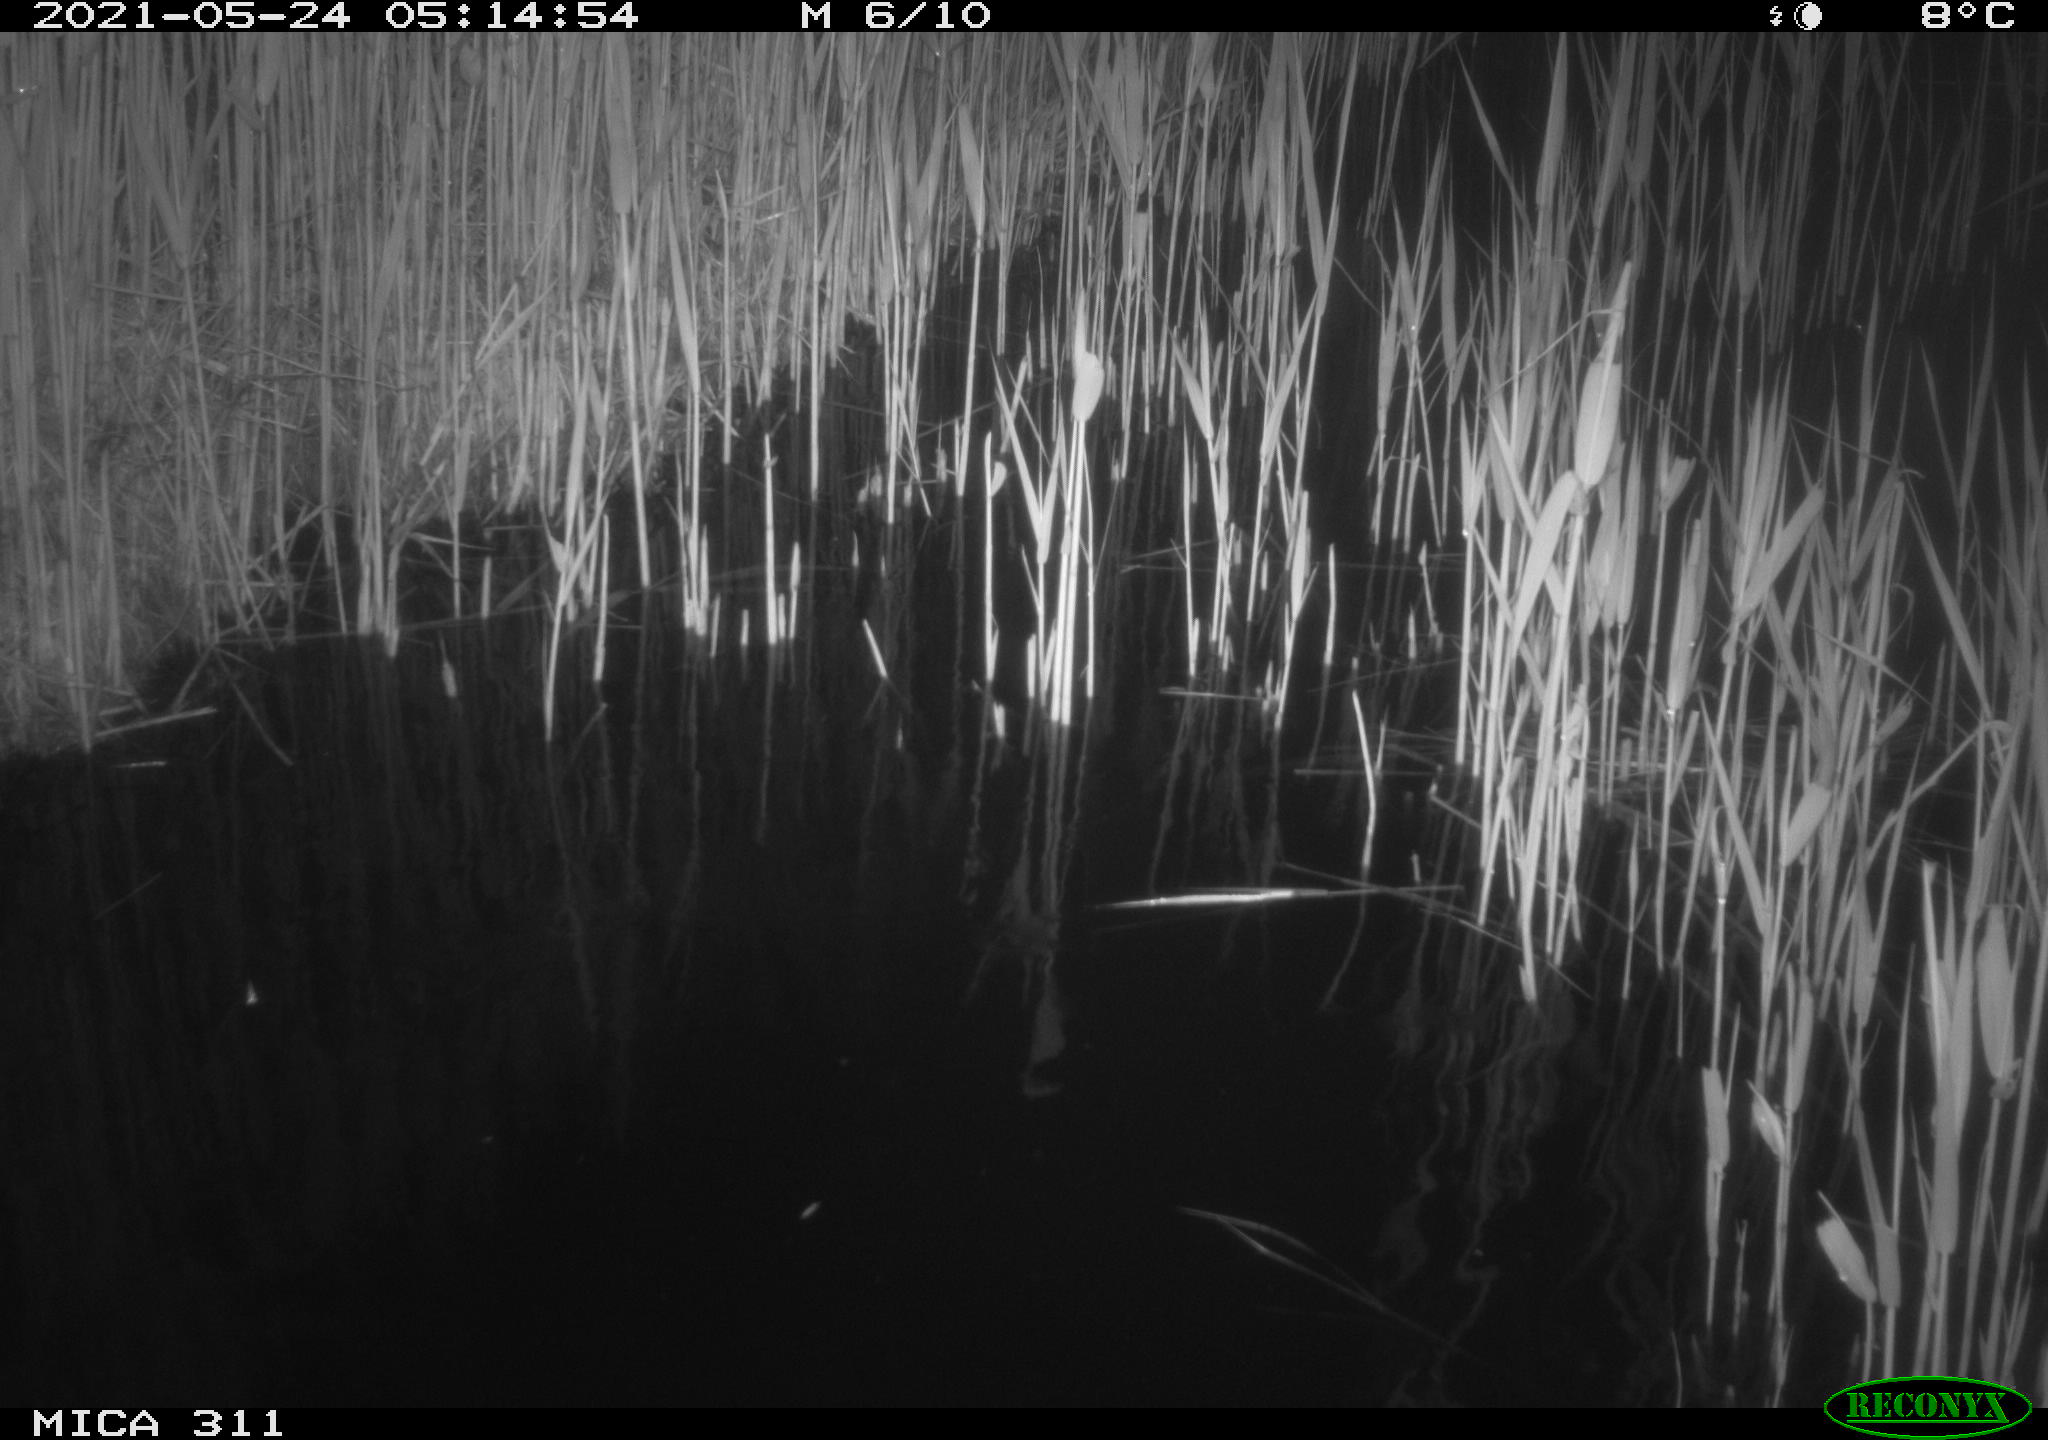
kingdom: Animalia
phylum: Chordata
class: Aves
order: Anseriformes
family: Anatidae
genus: Anas
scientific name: Anas platyrhynchos
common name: Mallard
